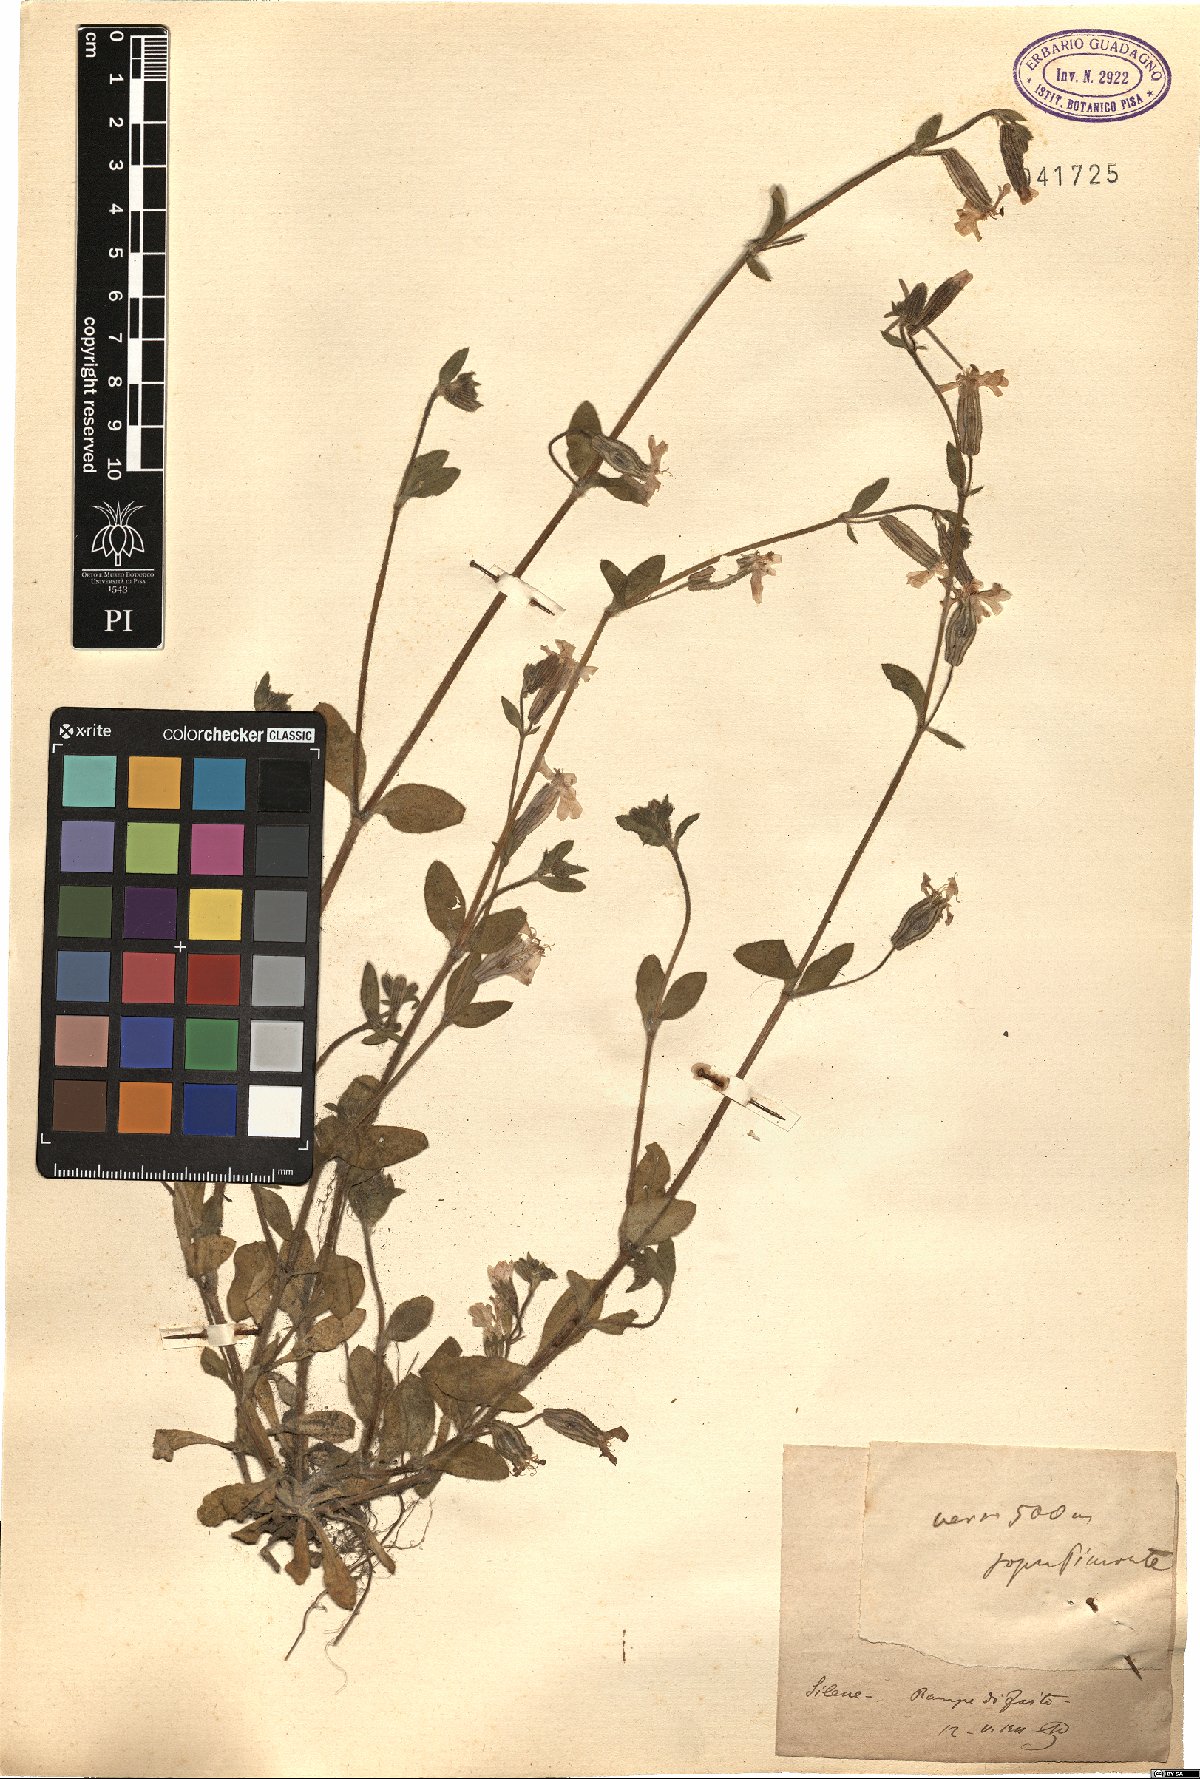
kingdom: Plantae
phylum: Tracheophyta
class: Magnoliopsida
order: Caryophyllales
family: Caryophyllaceae
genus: Silene
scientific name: Silene
